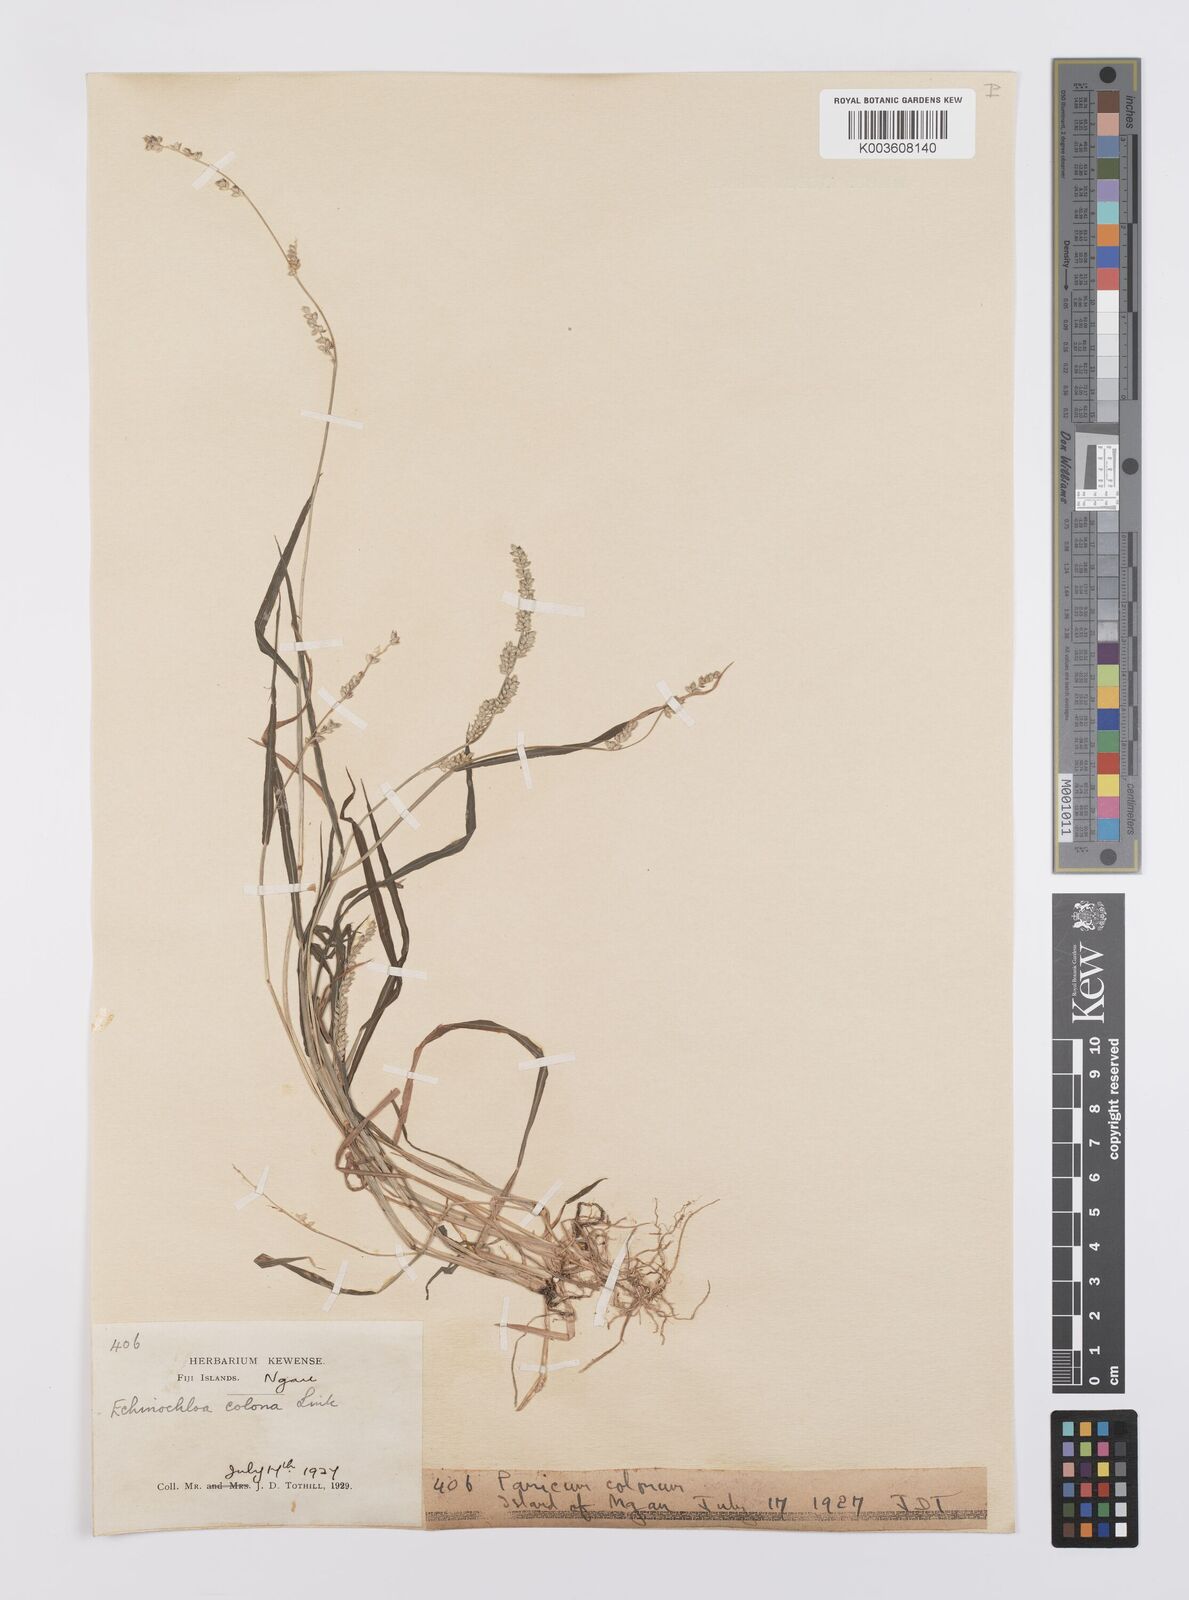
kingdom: Plantae
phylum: Tracheophyta
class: Liliopsida
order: Poales
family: Poaceae
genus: Echinochloa
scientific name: Echinochloa colonum
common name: Jungle rice
